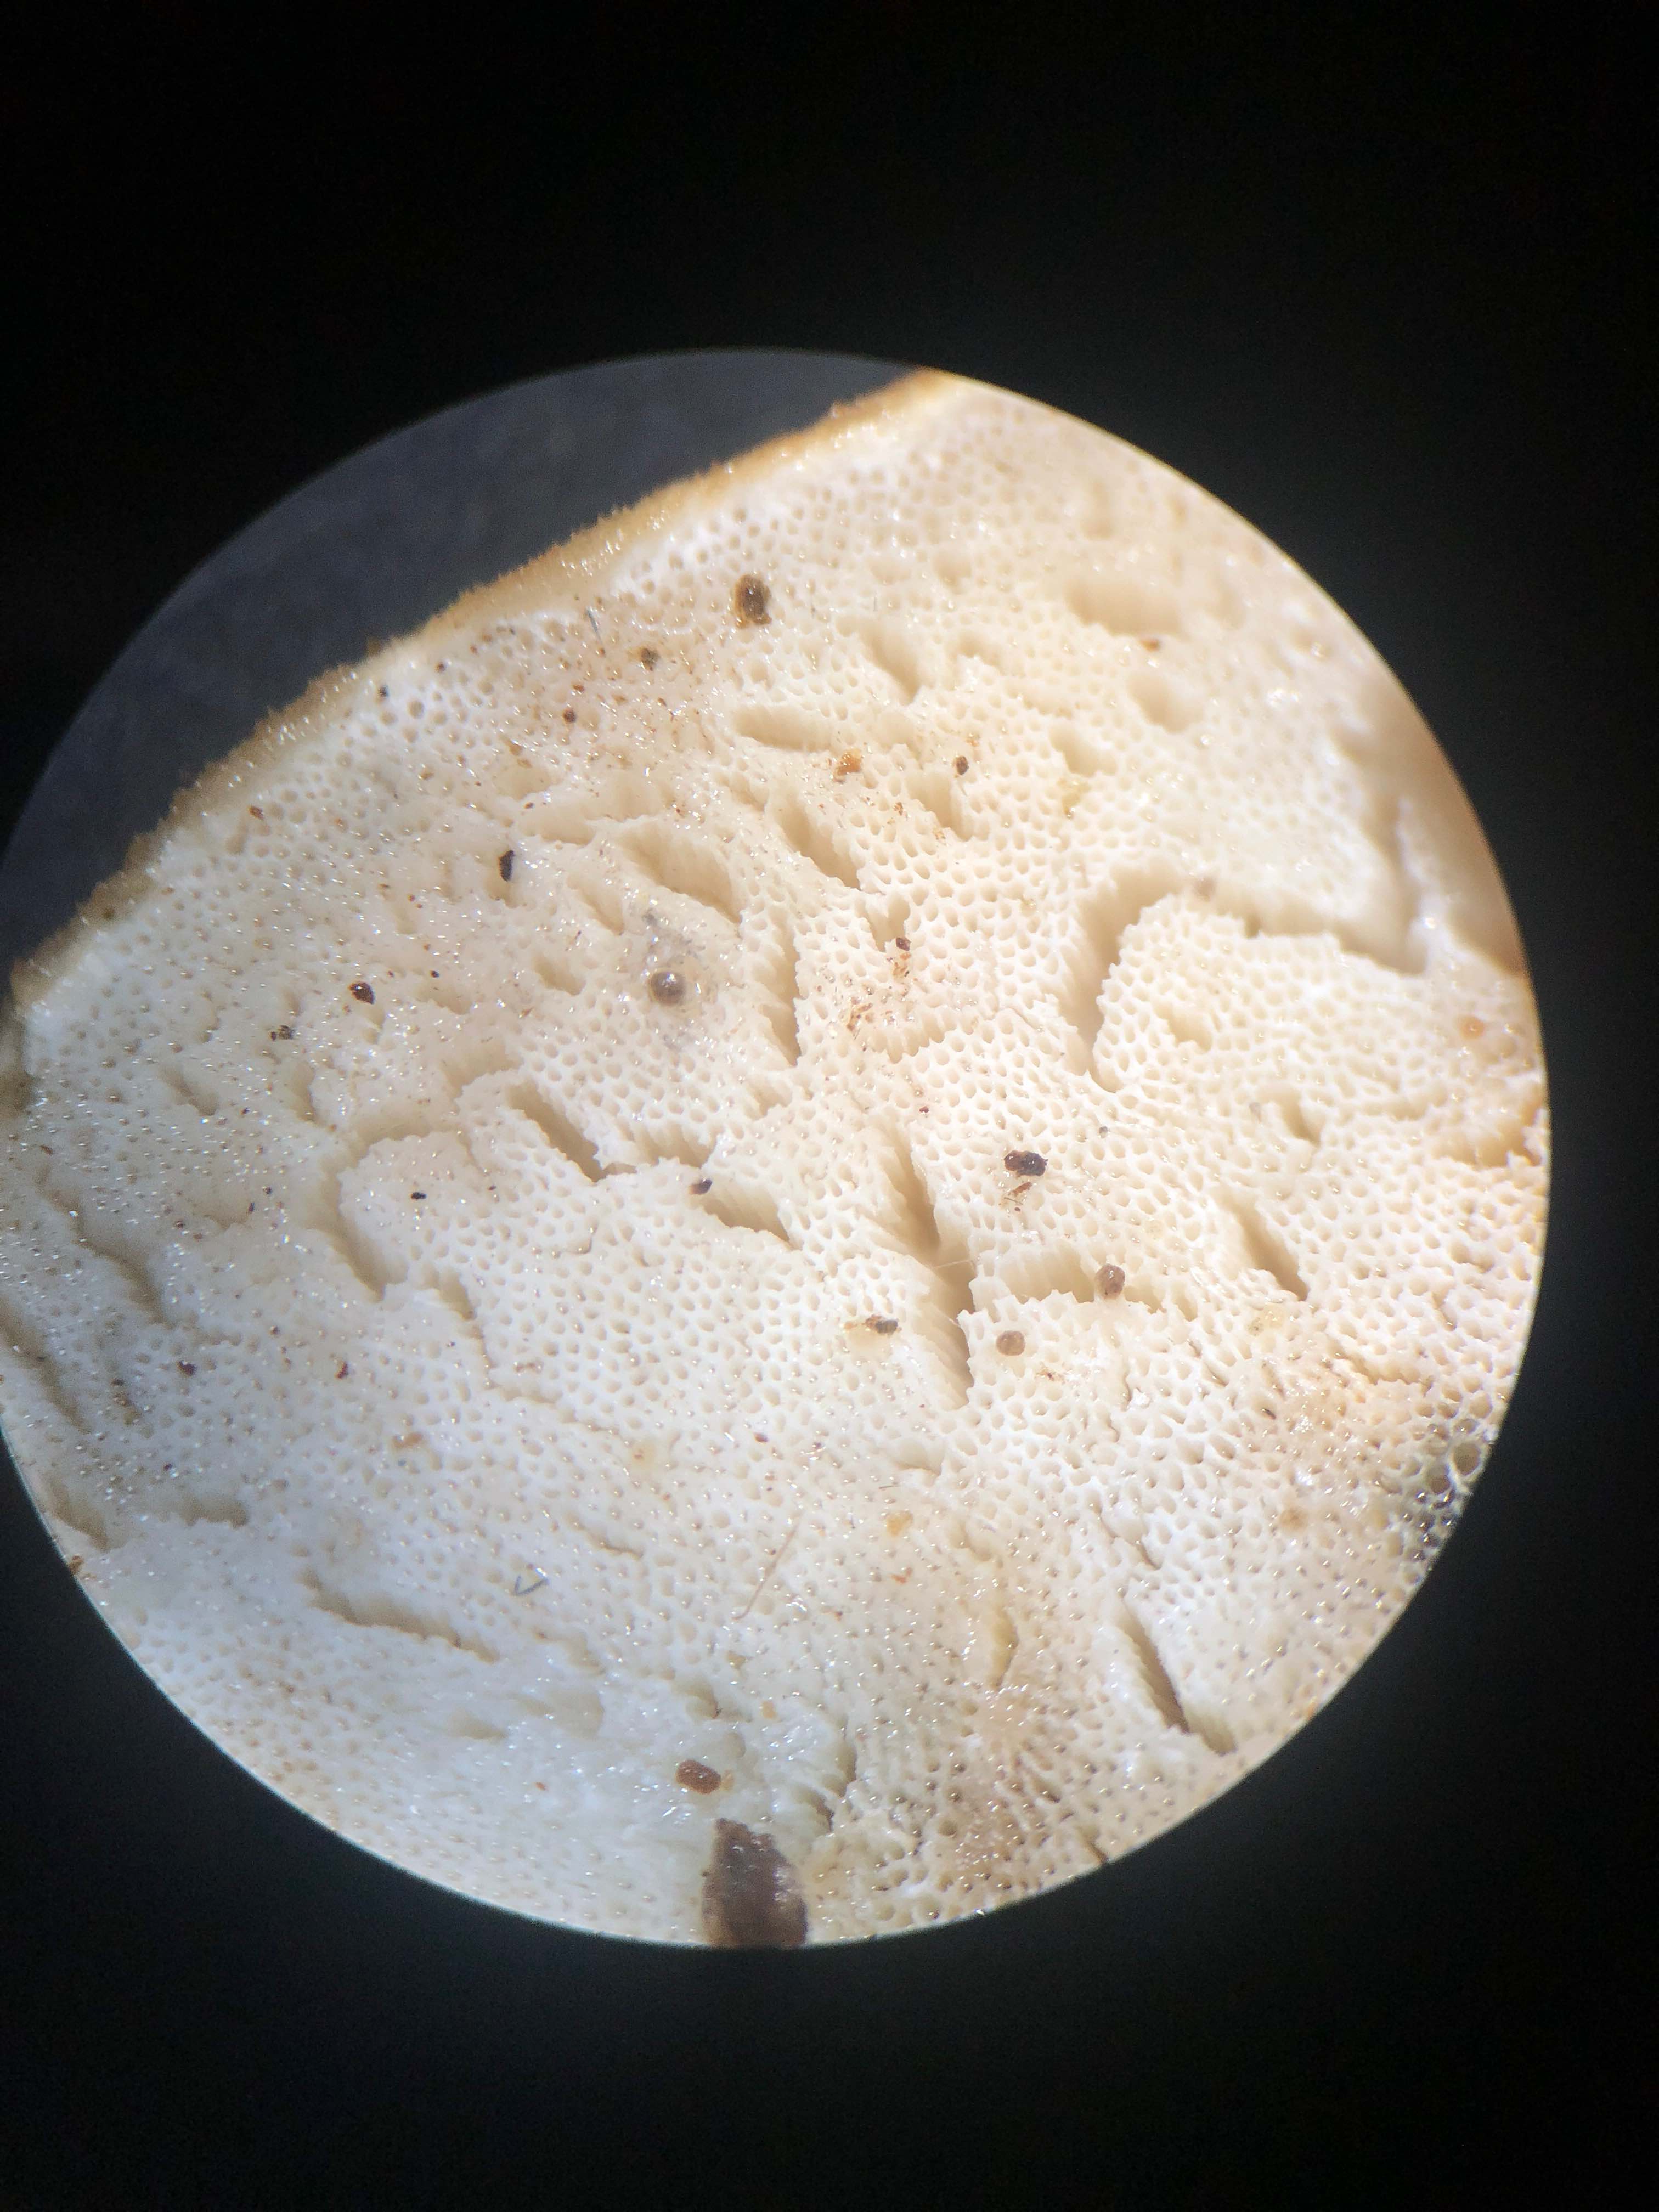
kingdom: Fungi
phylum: Basidiomycota
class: Agaricomycetes
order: Polyporales
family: Incrustoporiaceae
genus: Skeletocutis
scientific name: Skeletocutis nemoralis
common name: stor krystalporesvamp
